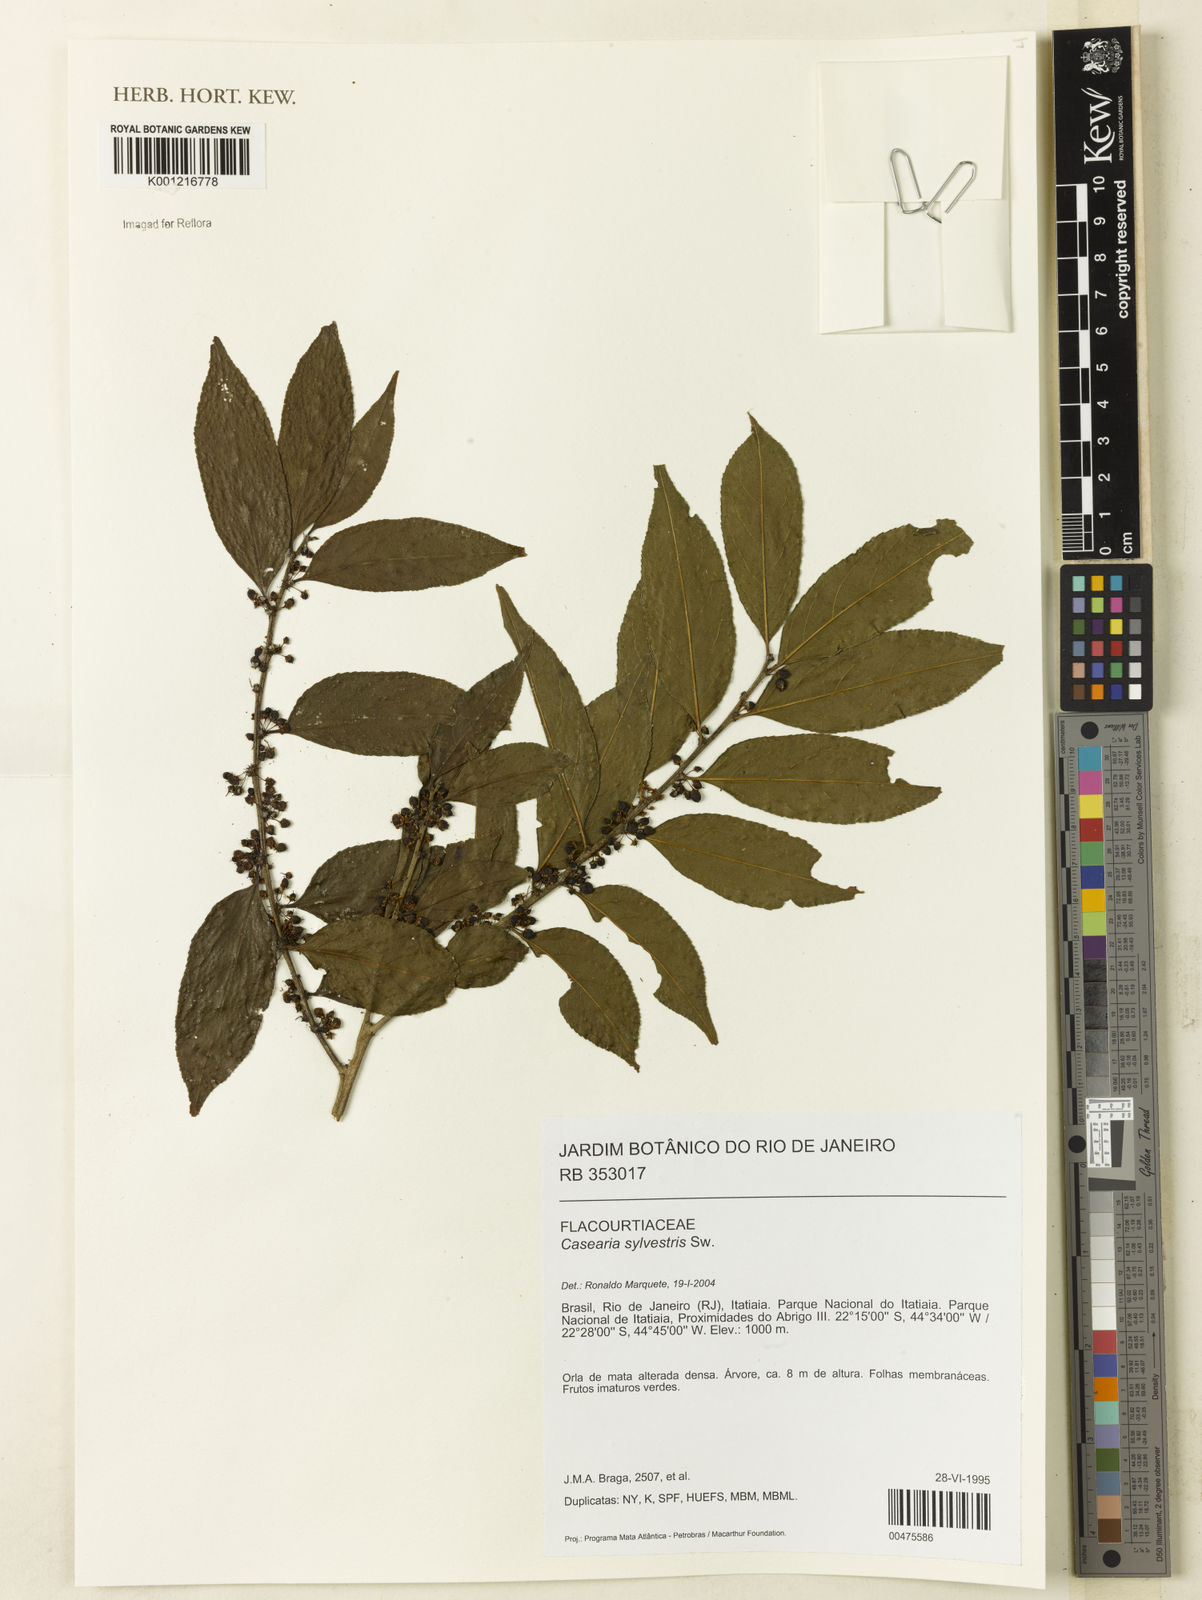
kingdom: Plantae
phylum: Tracheophyta
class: Magnoliopsida
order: Malpighiales
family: Salicaceae
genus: Casearia
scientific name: Casearia sylvestris
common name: Wild sage
